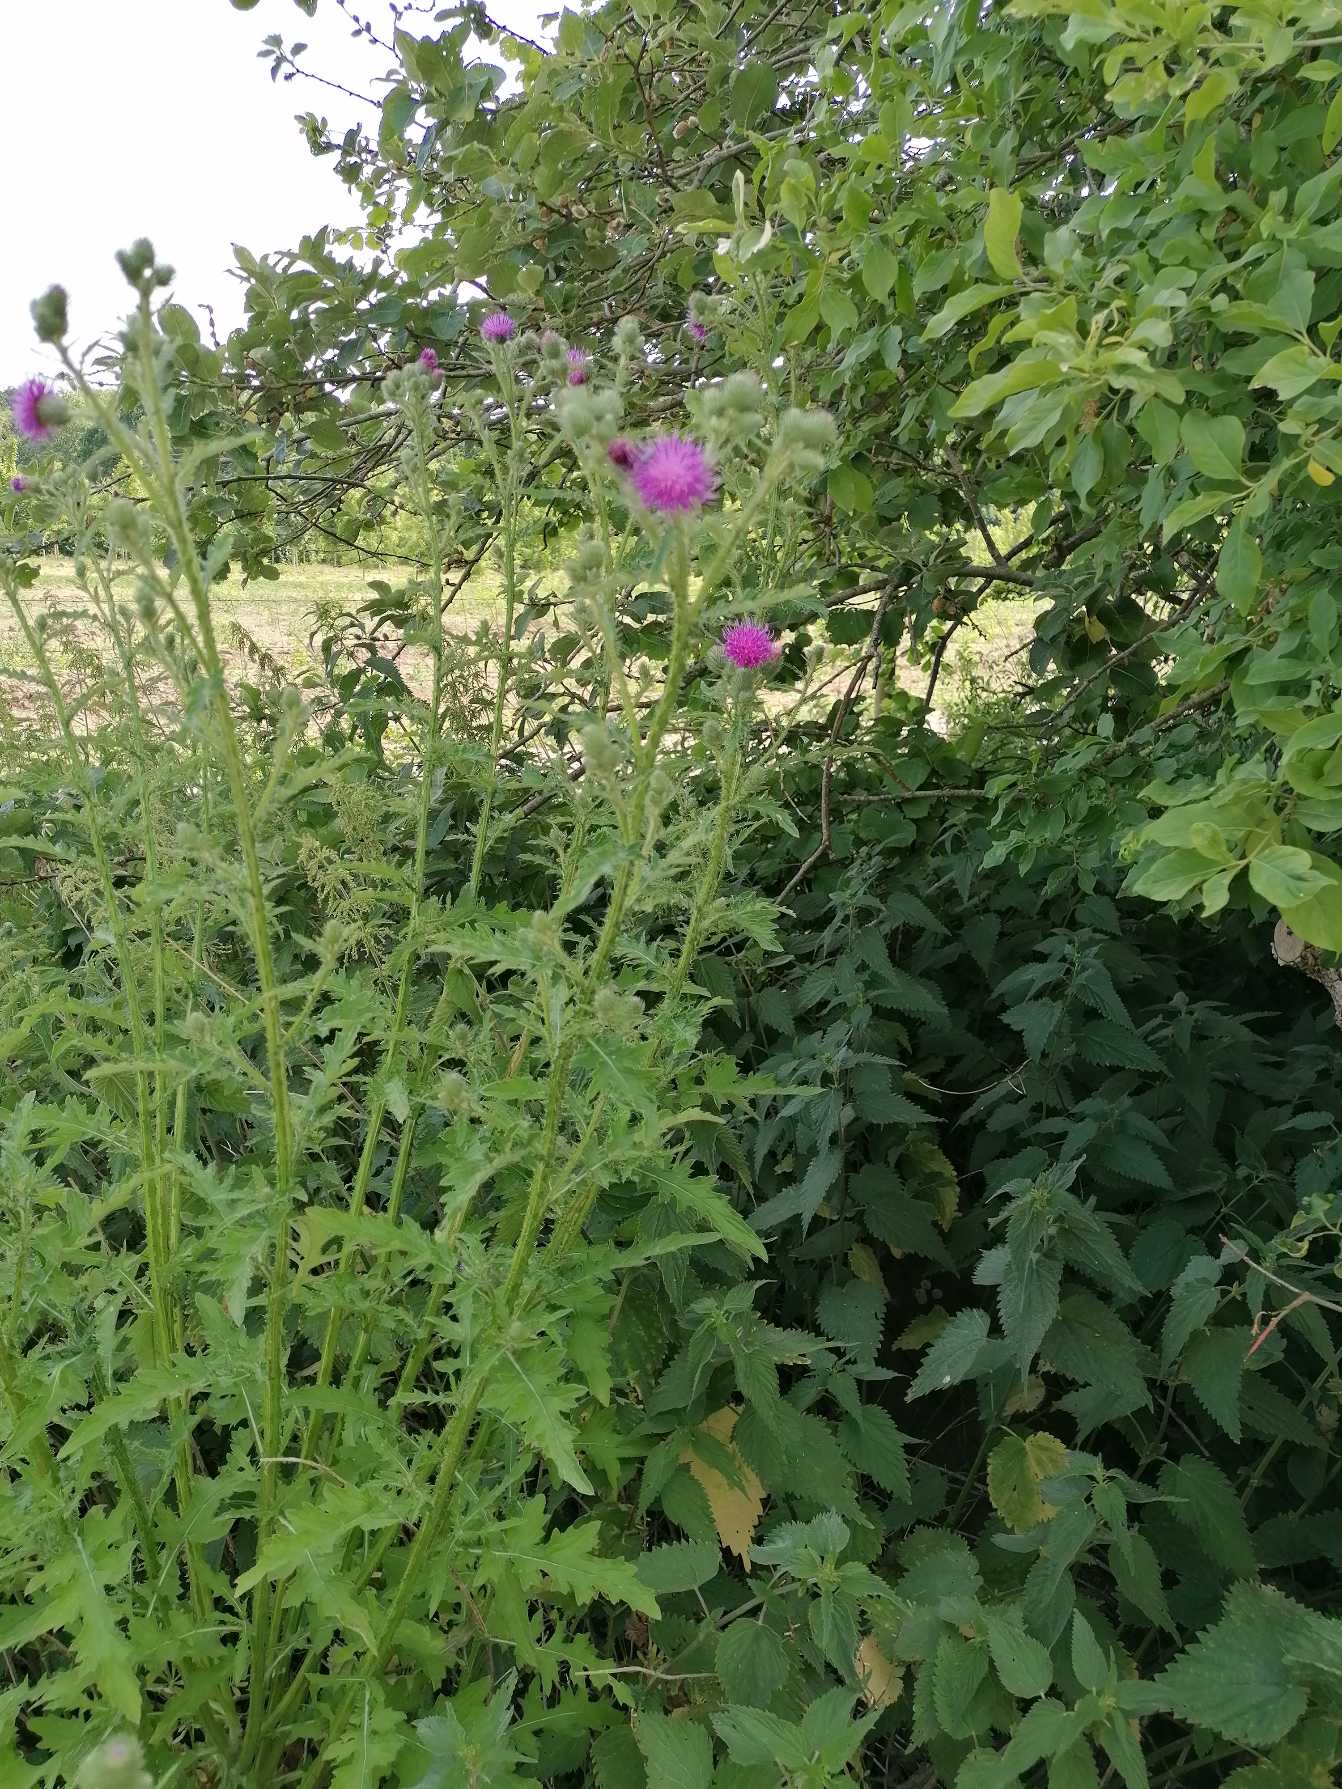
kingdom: Plantae
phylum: Tracheophyta
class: Magnoliopsida
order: Asterales
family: Asteraceae
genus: Carduus
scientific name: Carduus crispus
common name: Kruset tidsel
